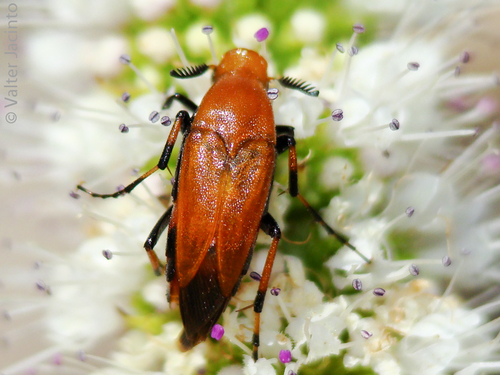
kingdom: Animalia
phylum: Arthropoda
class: Insecta
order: Coleoptera
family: Ripiphoridae
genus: Macrosiagon
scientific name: Macrosiagon ferruginea
